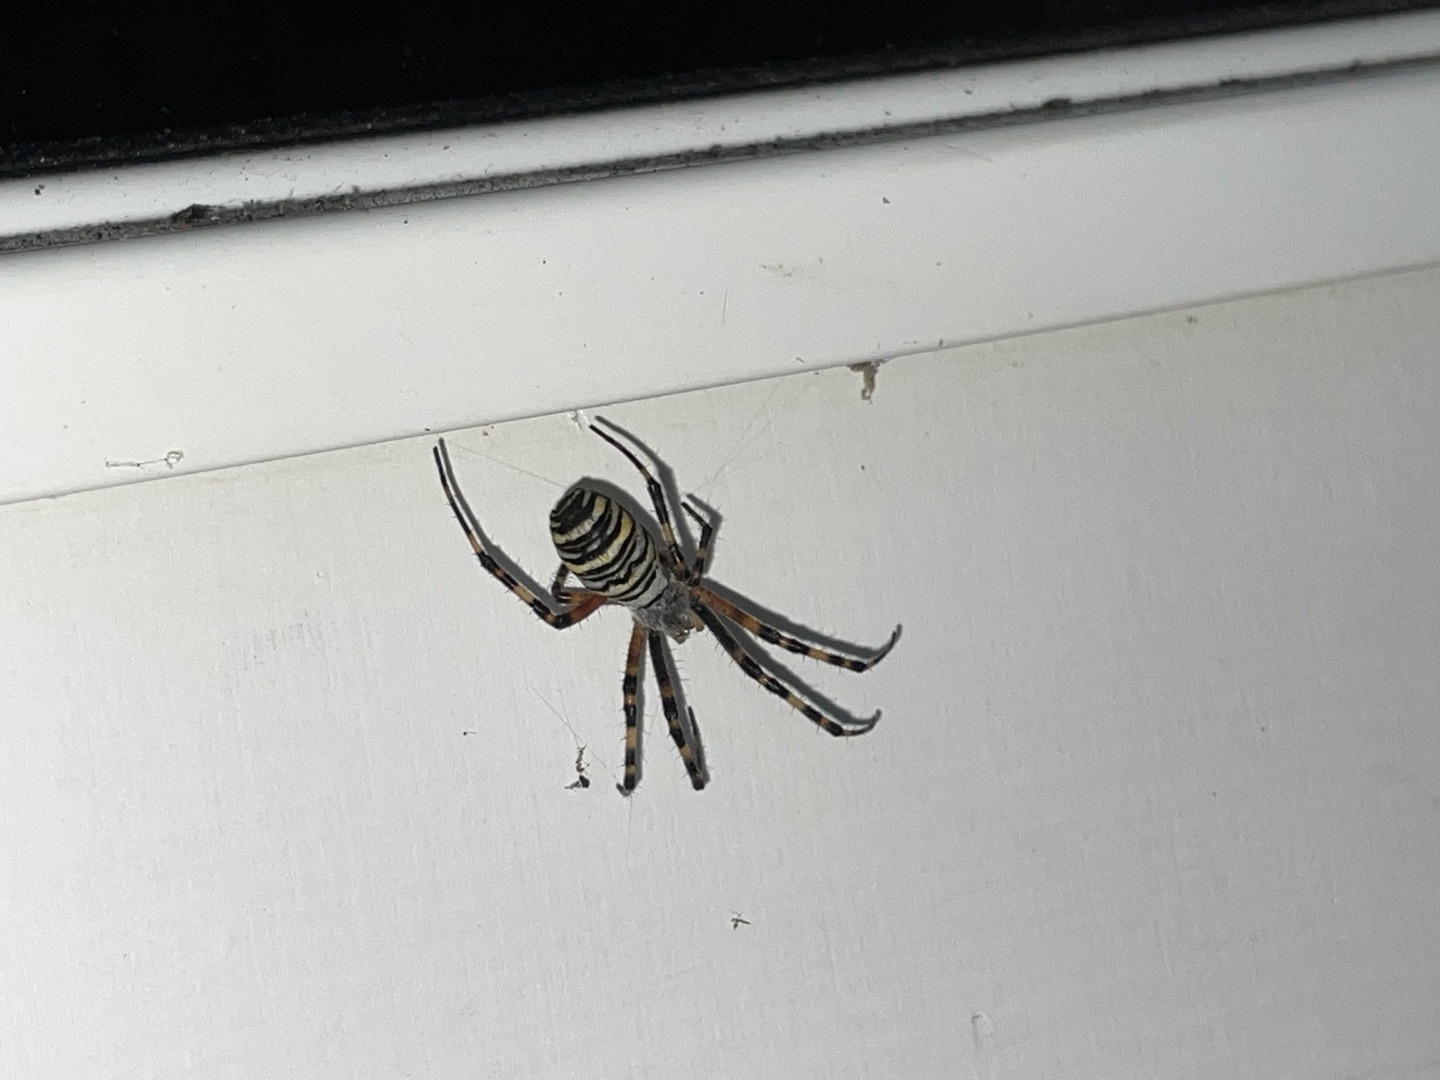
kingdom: Animalia
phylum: Arthropoda
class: Arachnida
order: Araneae
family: Araneidae
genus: Argiope
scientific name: Argiope bruennichi
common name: Hvepseedderkop
